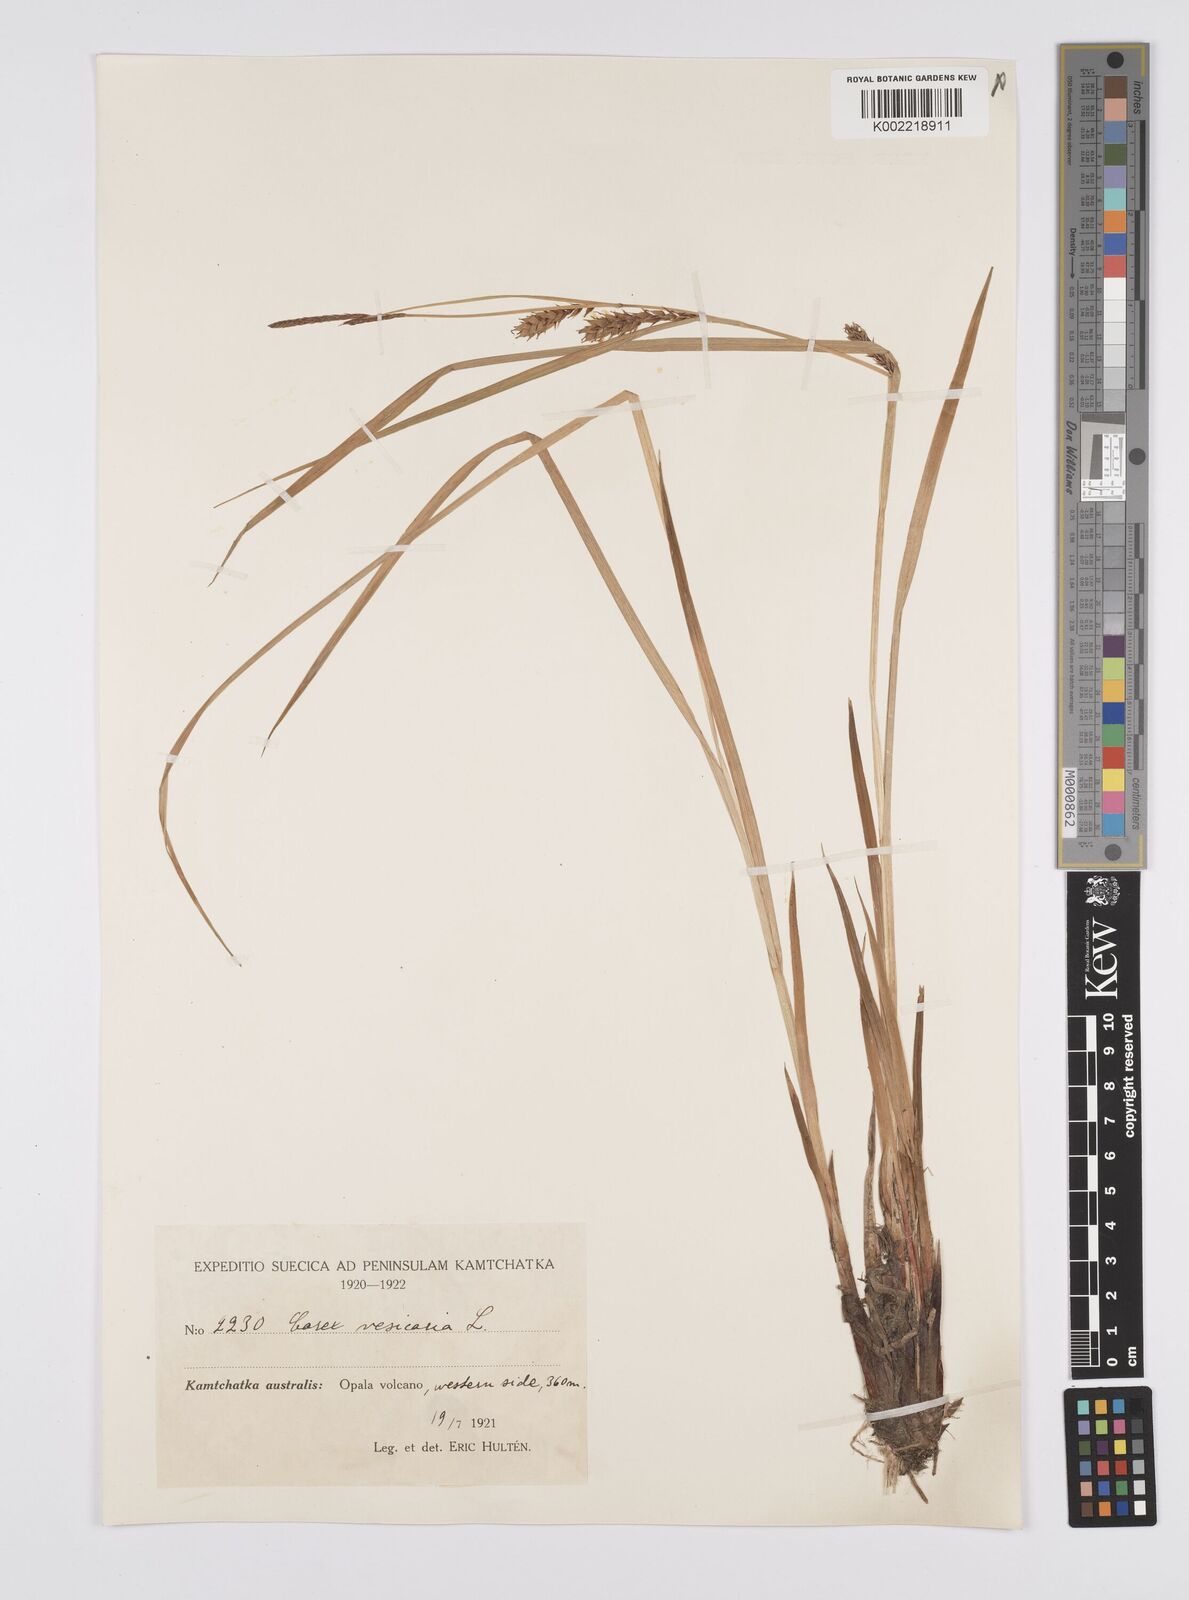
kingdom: Plantae
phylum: Tracheophyta
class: Liliopsida
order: Poales
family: Cyperaceae
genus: Carex
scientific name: Carex vesicaria
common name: Bladder-sedge
